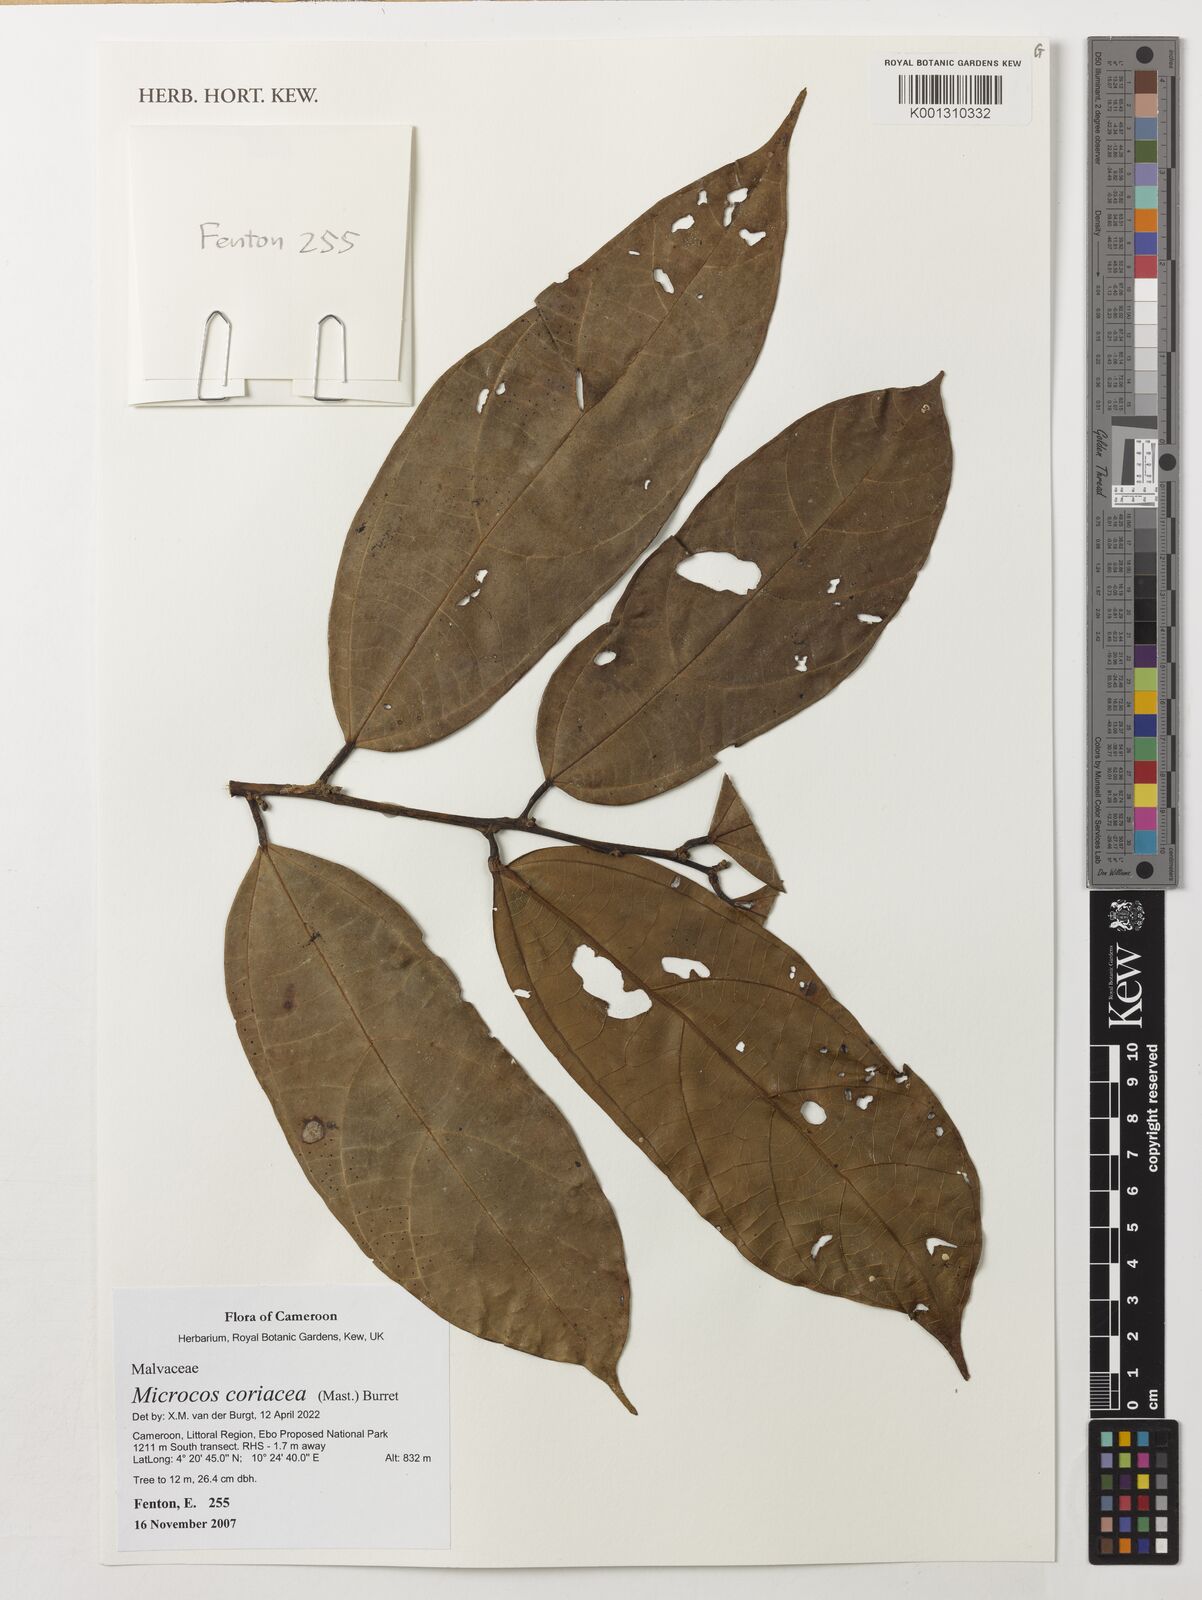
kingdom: Plantae
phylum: Tracheophyta
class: Magnoliopsida
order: Malvales
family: Malvaceae
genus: Microcos
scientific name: Microcos
